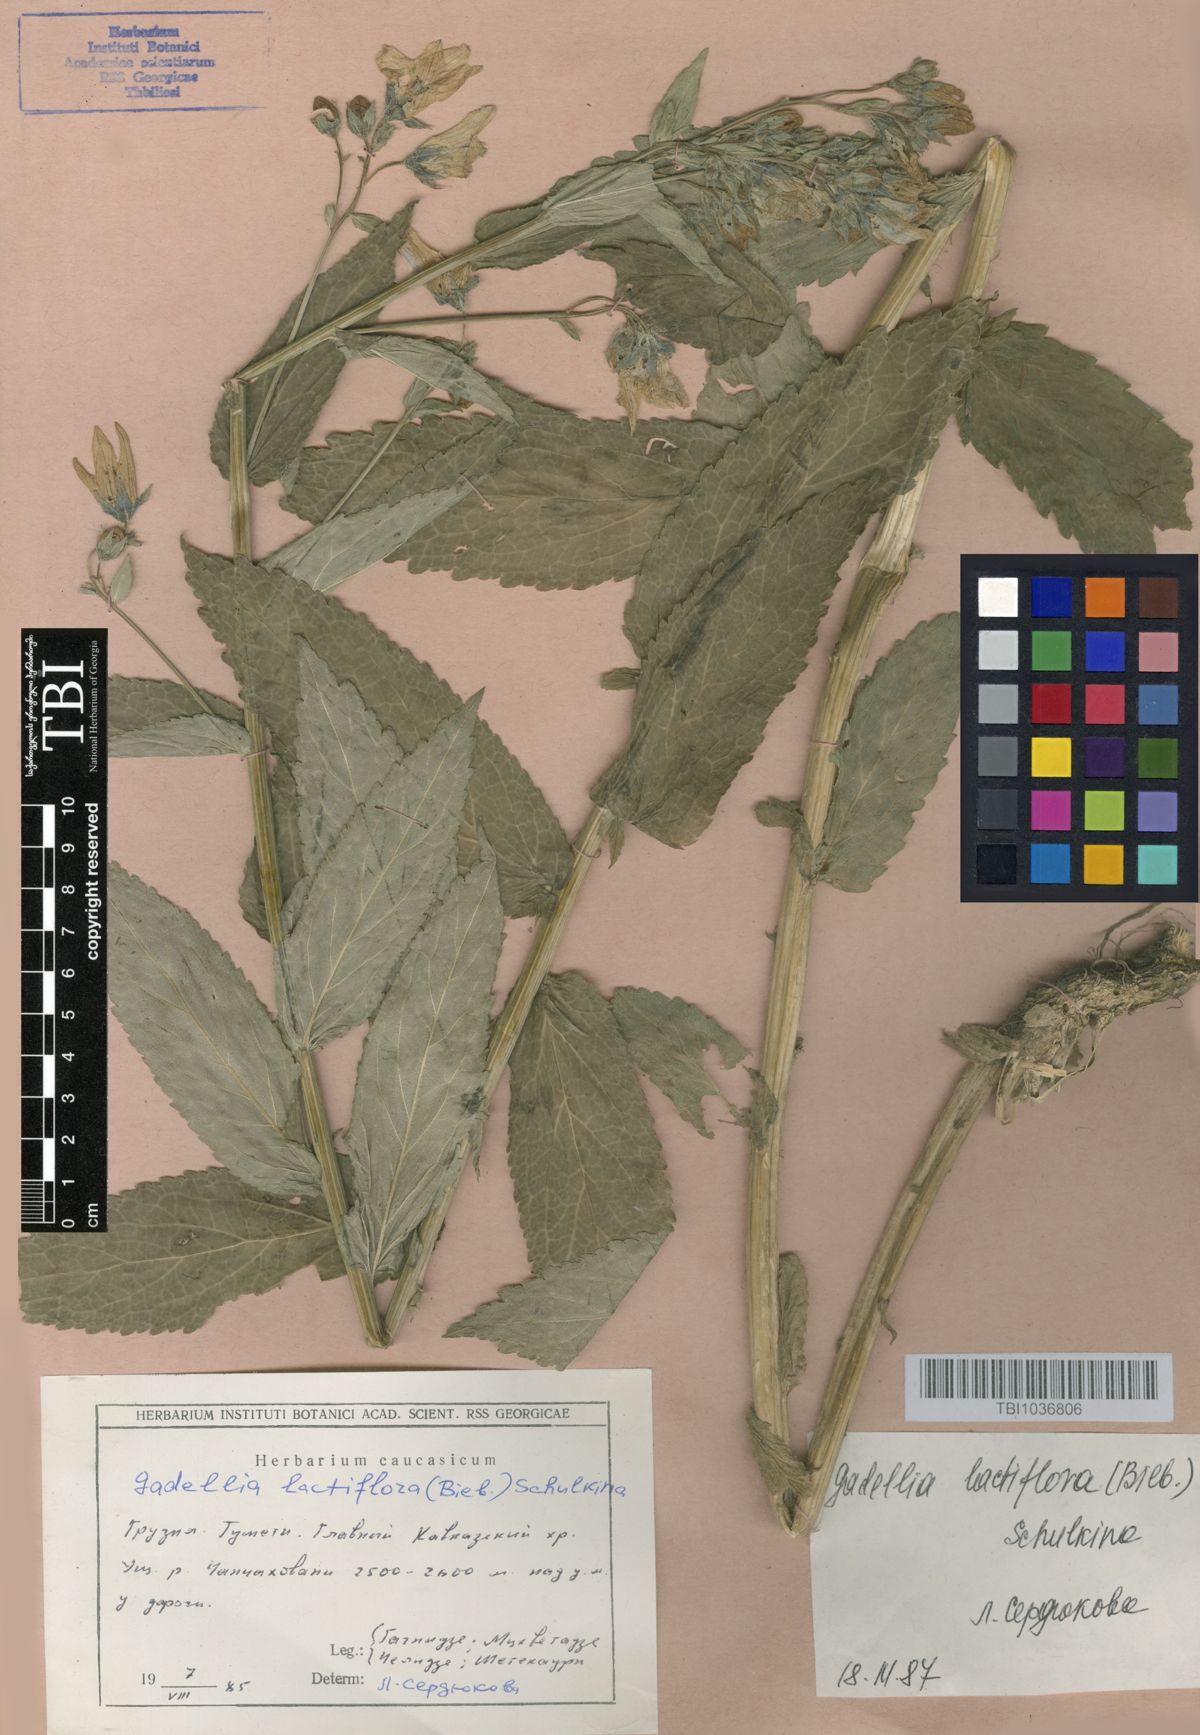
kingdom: Plantae
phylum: Tracheophyta
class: Magnoliopsida
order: Asterales
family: Campanulaceae
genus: Campanula
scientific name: Campanula lactiflora
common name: Milky bellflower
